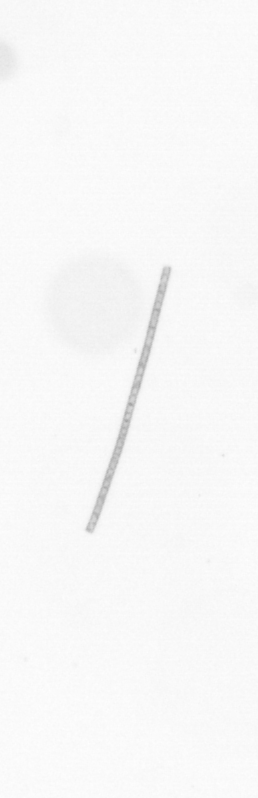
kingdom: Chromista
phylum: Ochrophyta
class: Bacillariophyceae
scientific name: Bacillariophyceae
